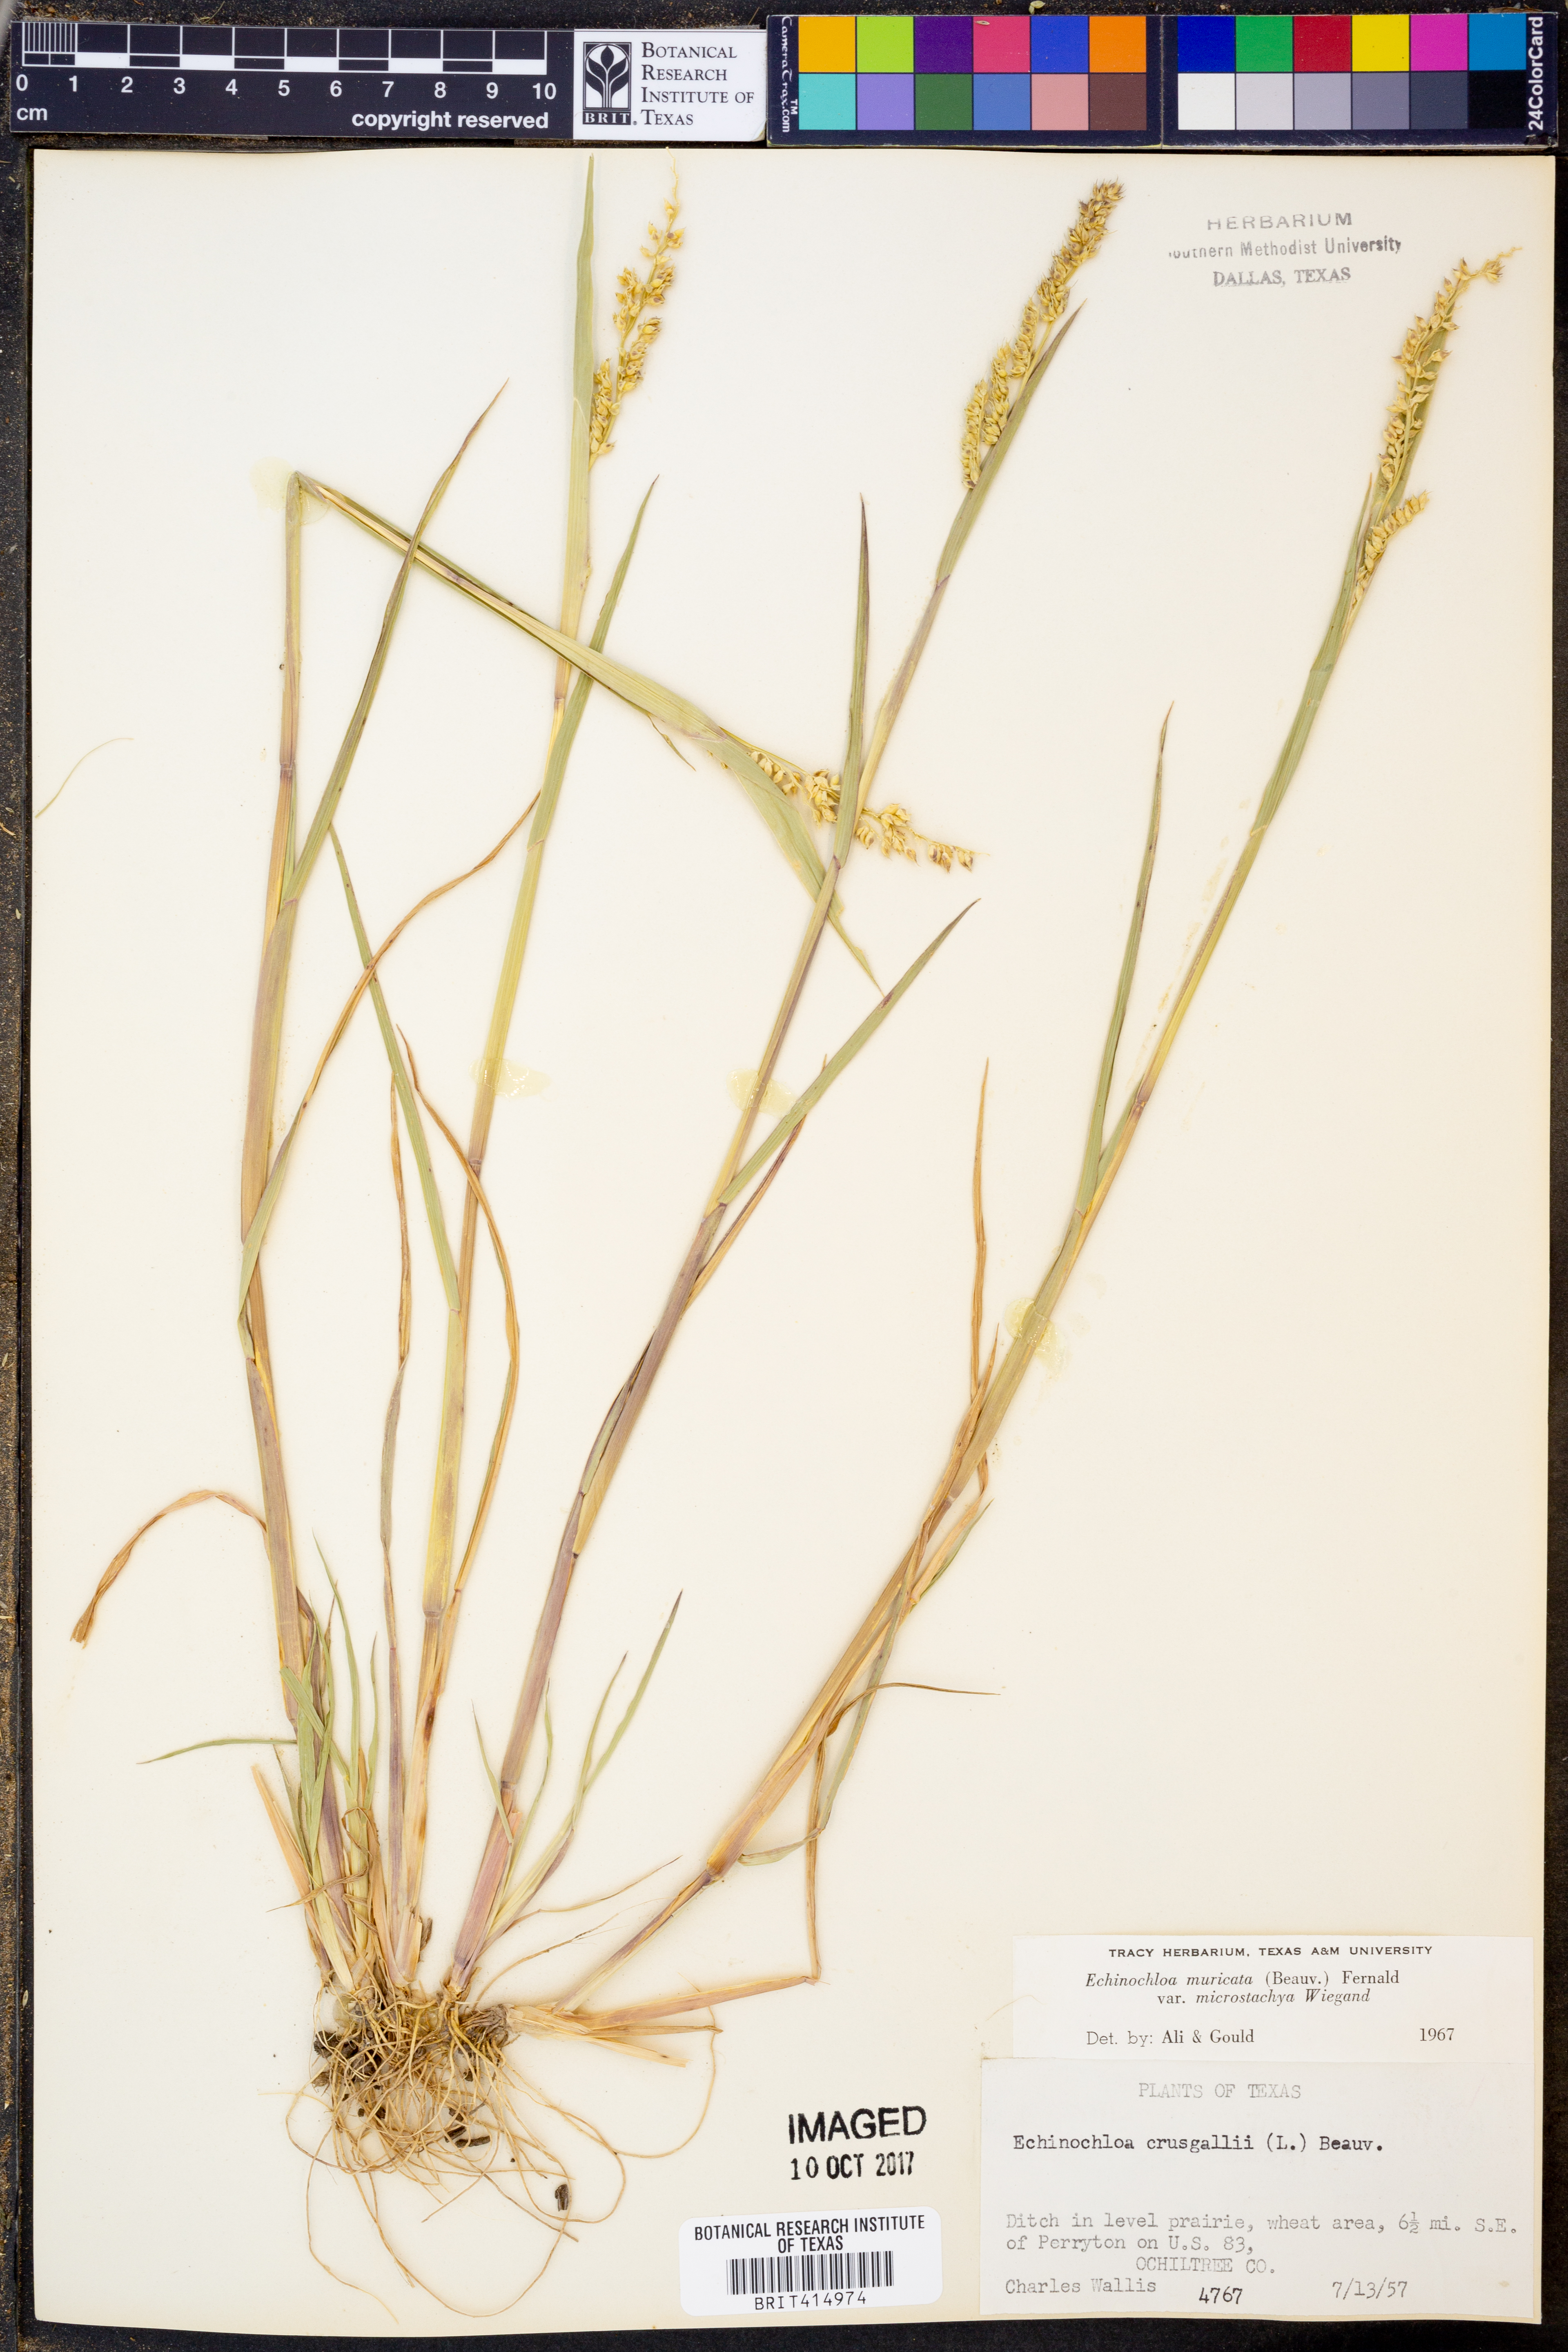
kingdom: Plantae
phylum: Tracheophyta
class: Liliopsida
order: Poales
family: Poaceae
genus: Echinochloa
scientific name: Echinochloa muricata
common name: American barnyard grass
